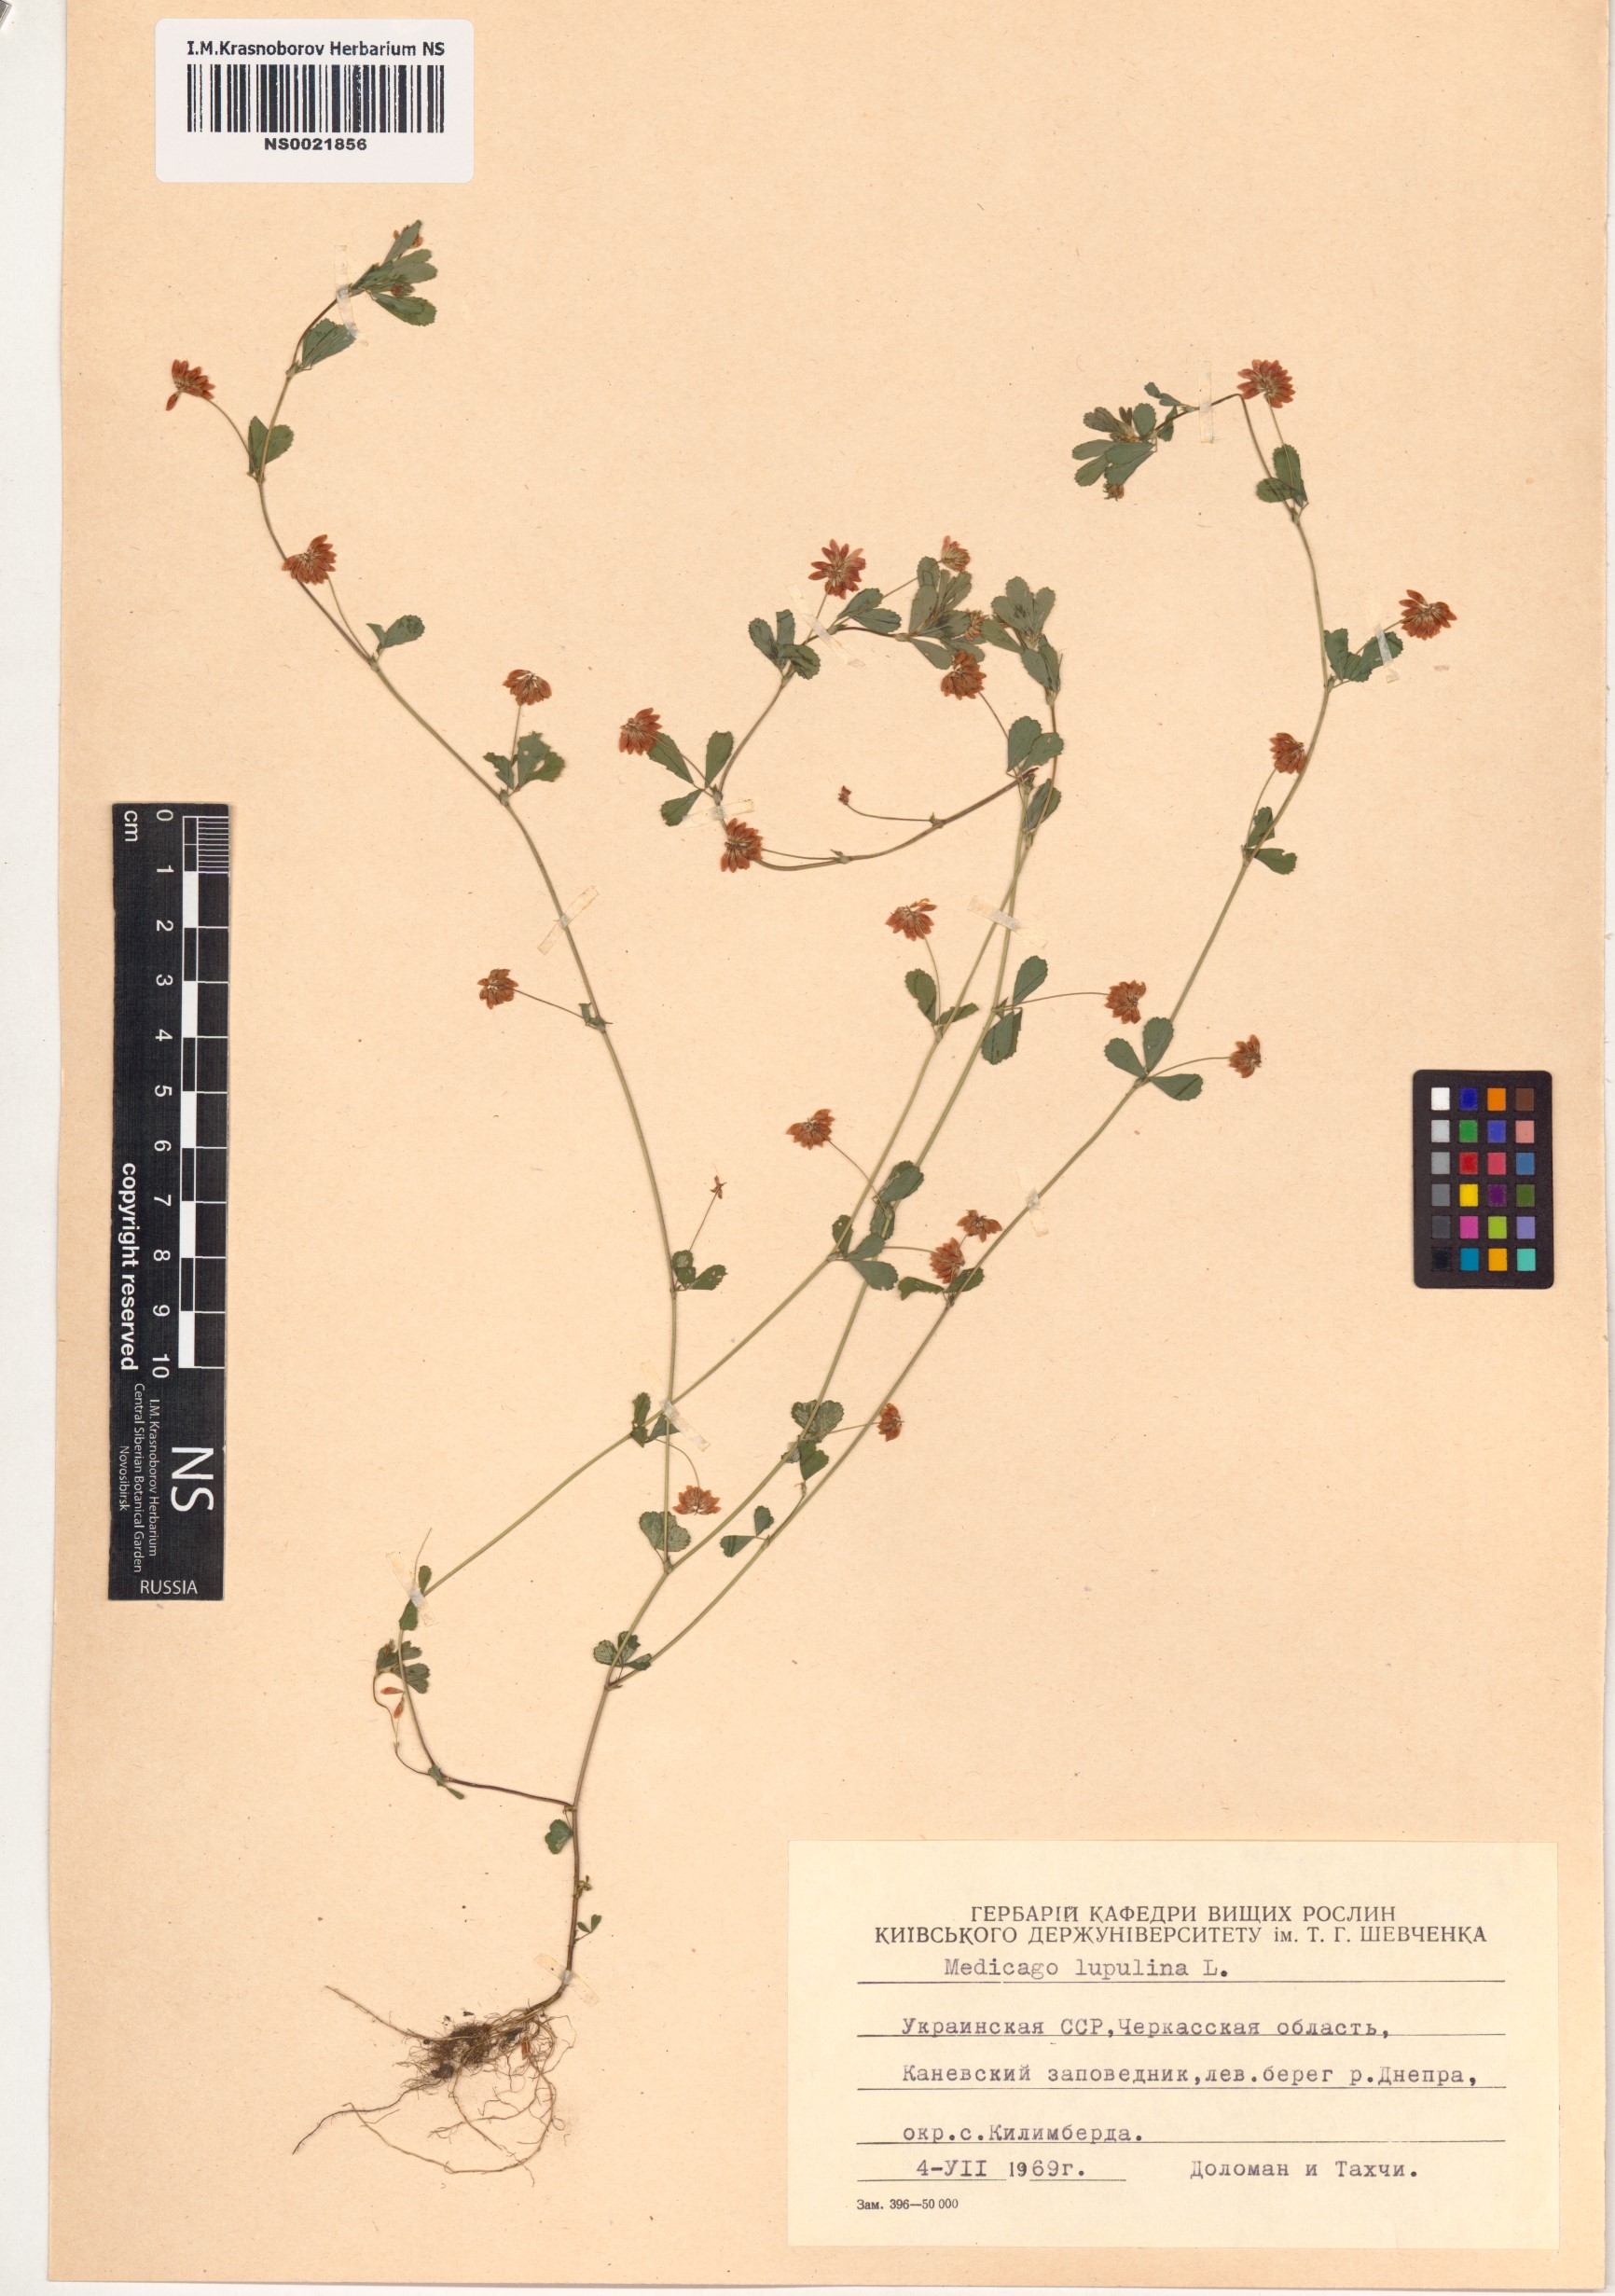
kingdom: Plantae
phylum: Tracheophyta
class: Magnoliopsida
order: Fabales
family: Fabaceae
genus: Medicago
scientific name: Medicago lupulina
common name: Black medick
